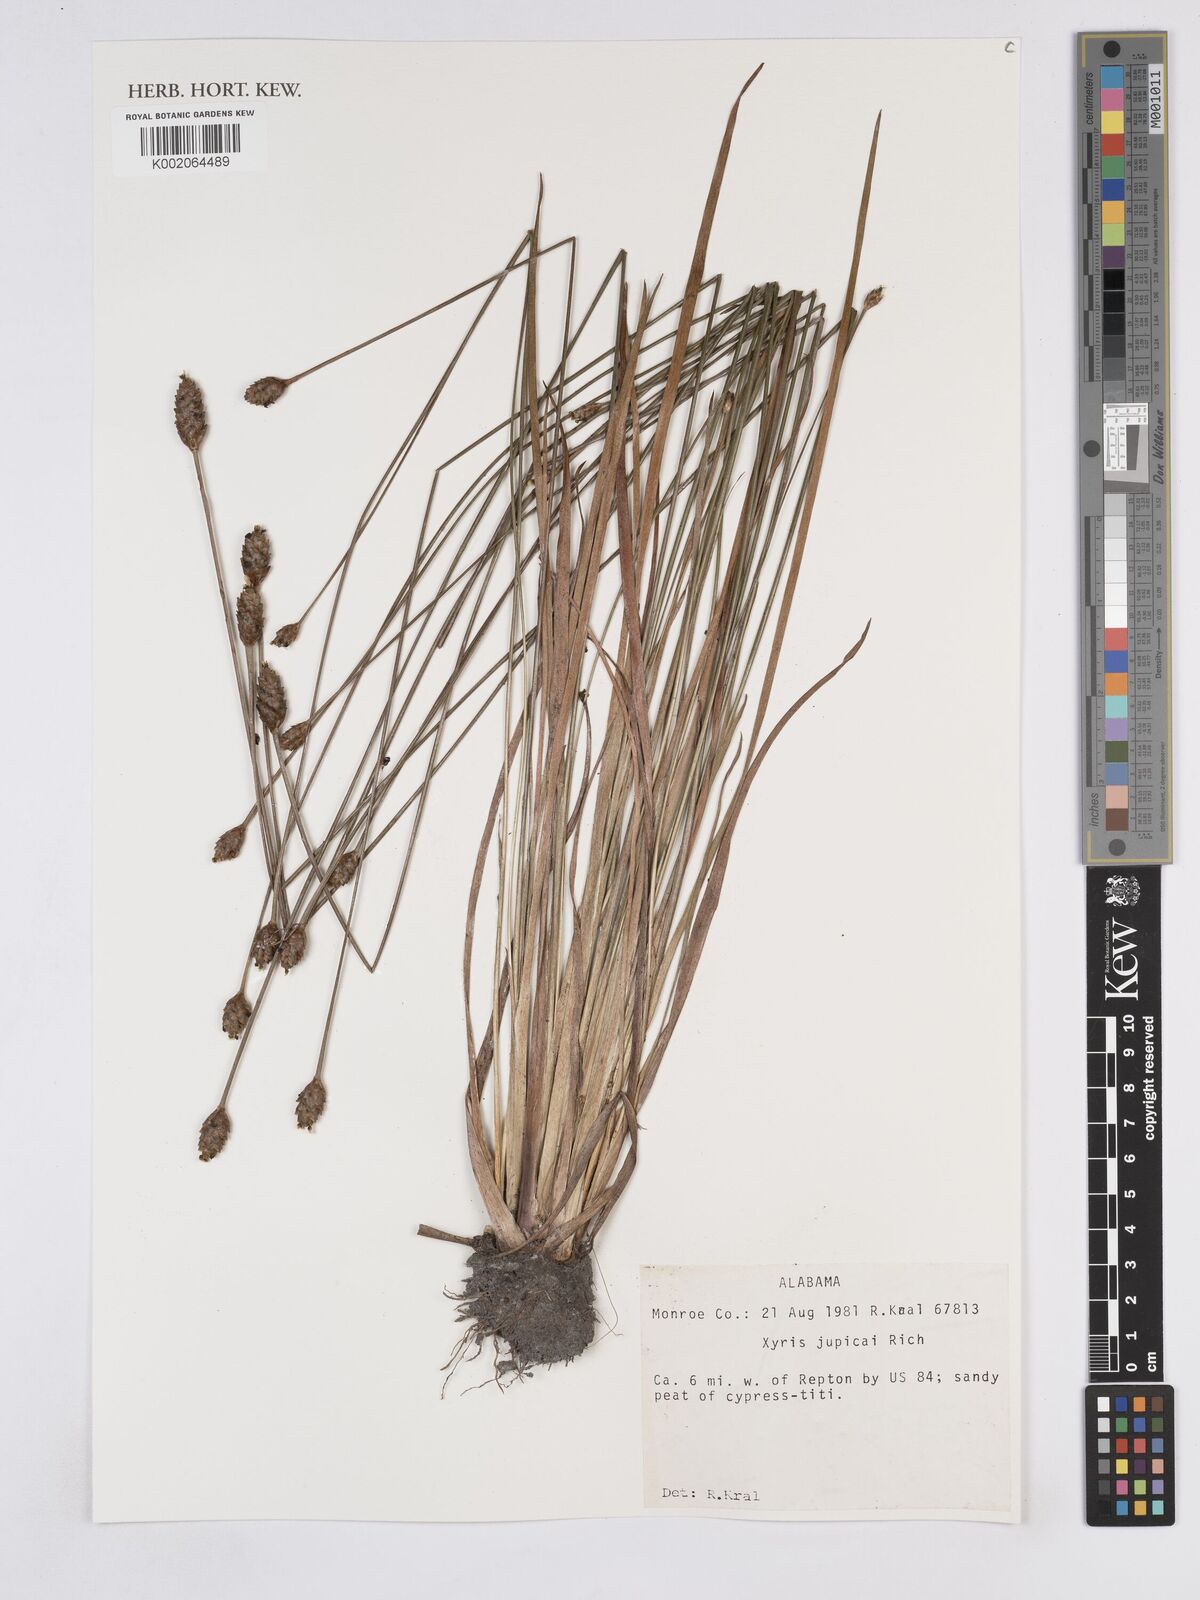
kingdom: Plantae
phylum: Tracheophyta
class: Liliopsida
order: Poales
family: Xyridaceae
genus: Xyris
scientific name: Xyris jupicai
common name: Richard's yelloweyed grass
